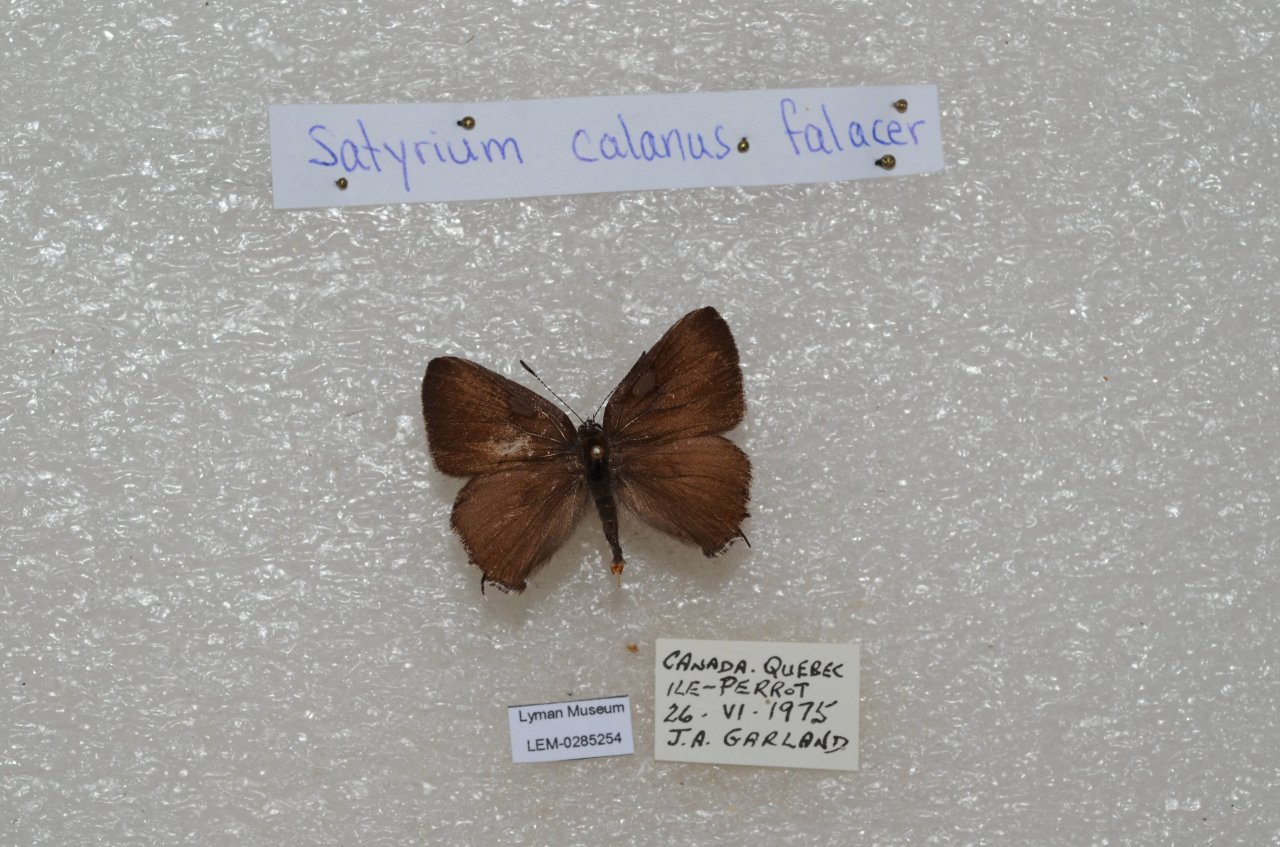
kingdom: Animalia
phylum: Arthropoda
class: Insecta
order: Lepidoptera
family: Lycaenidae
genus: Satyrium
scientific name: Satyrium calanus
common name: Banded Hairstreak
